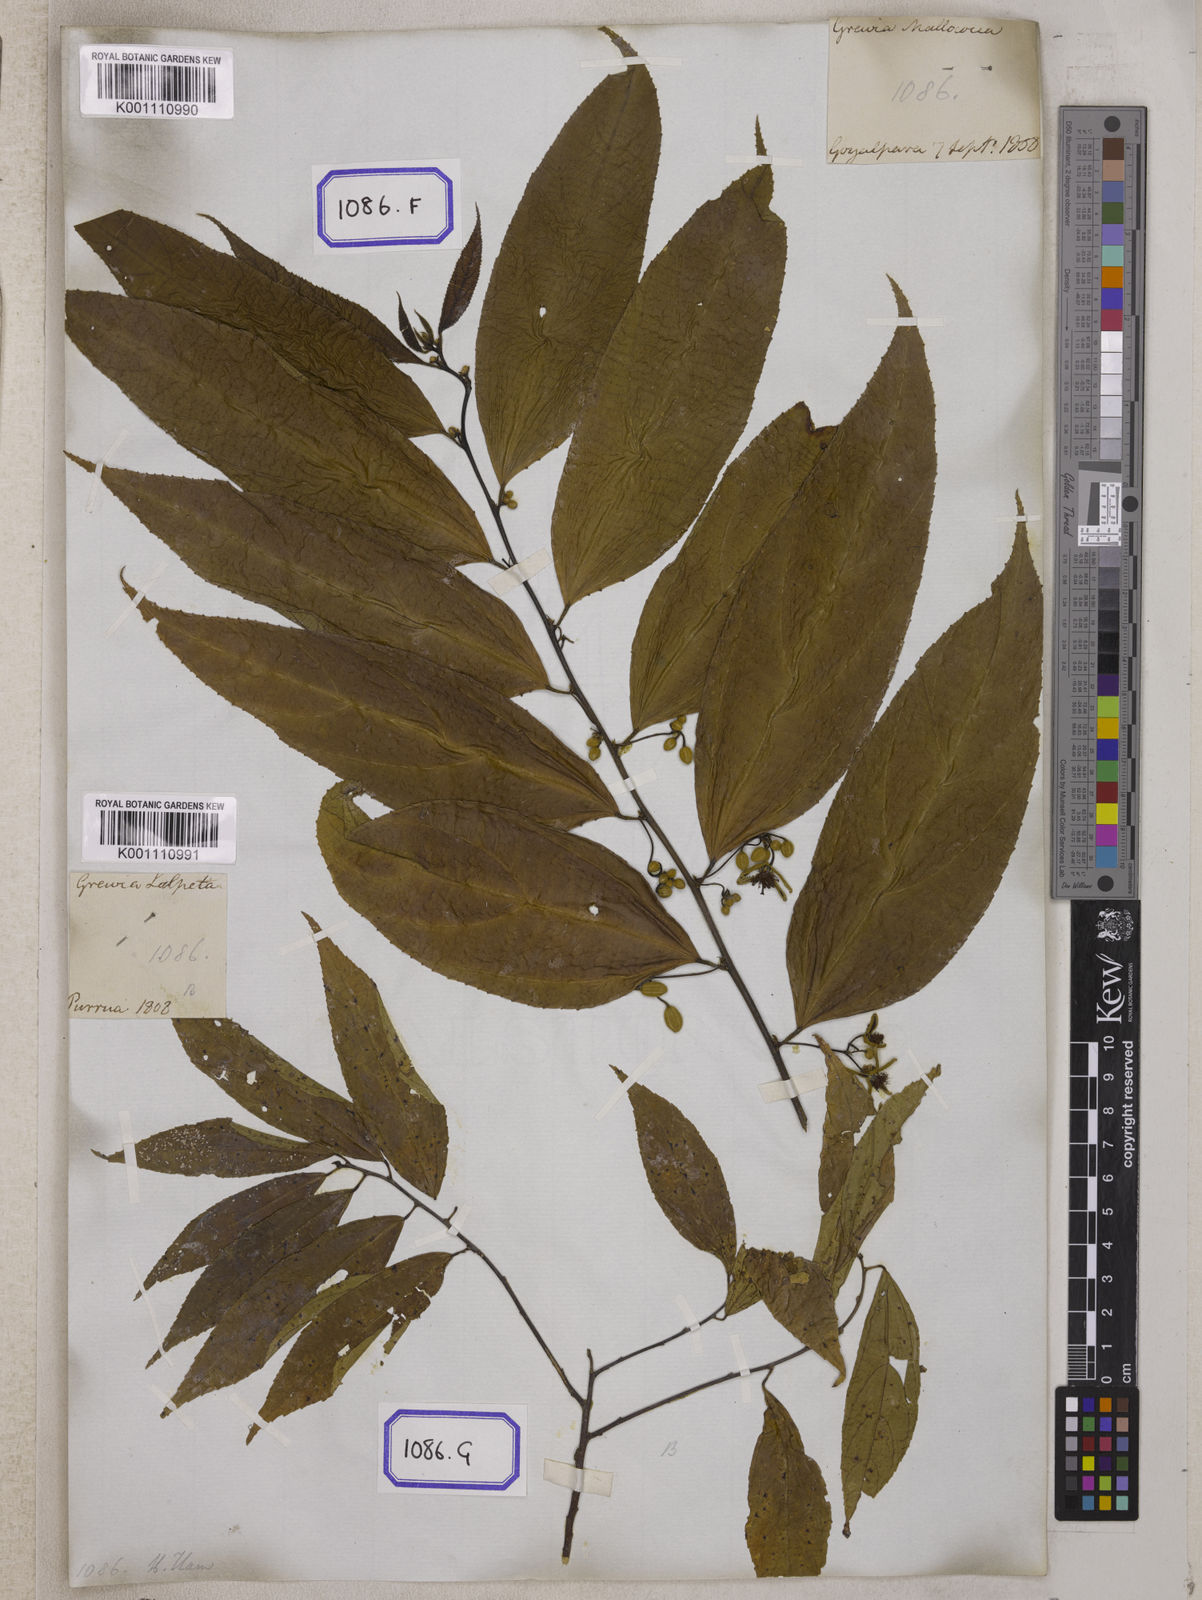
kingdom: Plantae
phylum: Tracheophyta
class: Magnoliopsida
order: Malvales
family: Malvaceae
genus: Grewia
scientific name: Grewia
